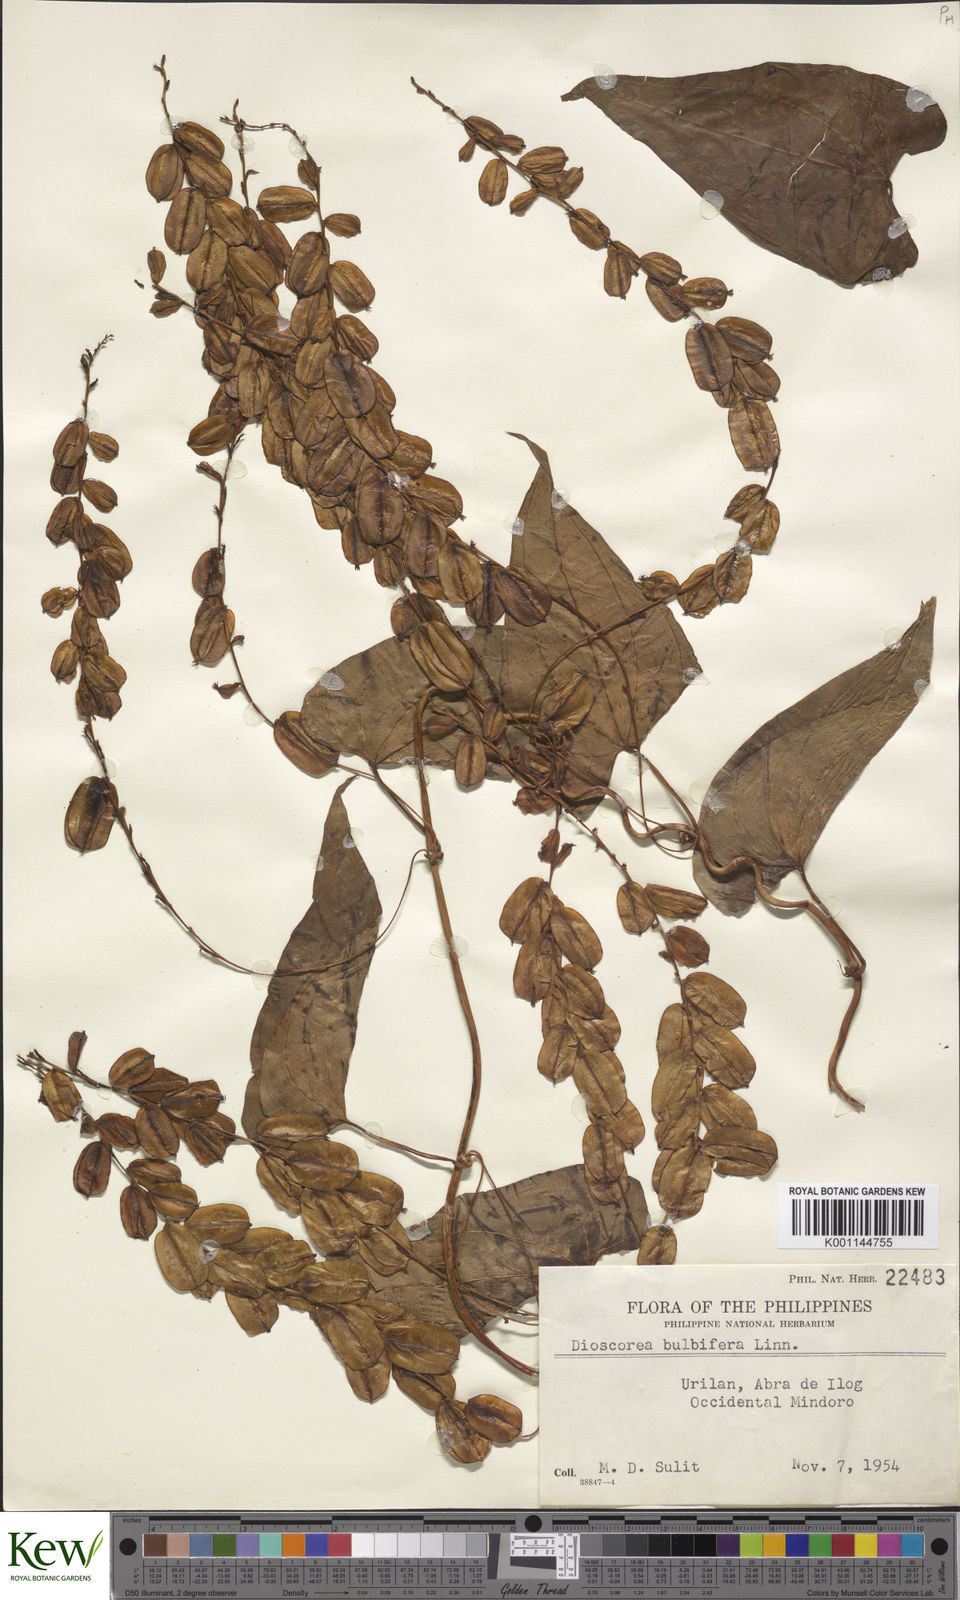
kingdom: Plantae
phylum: Tracheophyta
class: Liliopsida
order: Dioscoreales
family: Dioscoreaceae
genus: Dioscorea
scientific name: Dioscorea bulbifera
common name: Air yam
